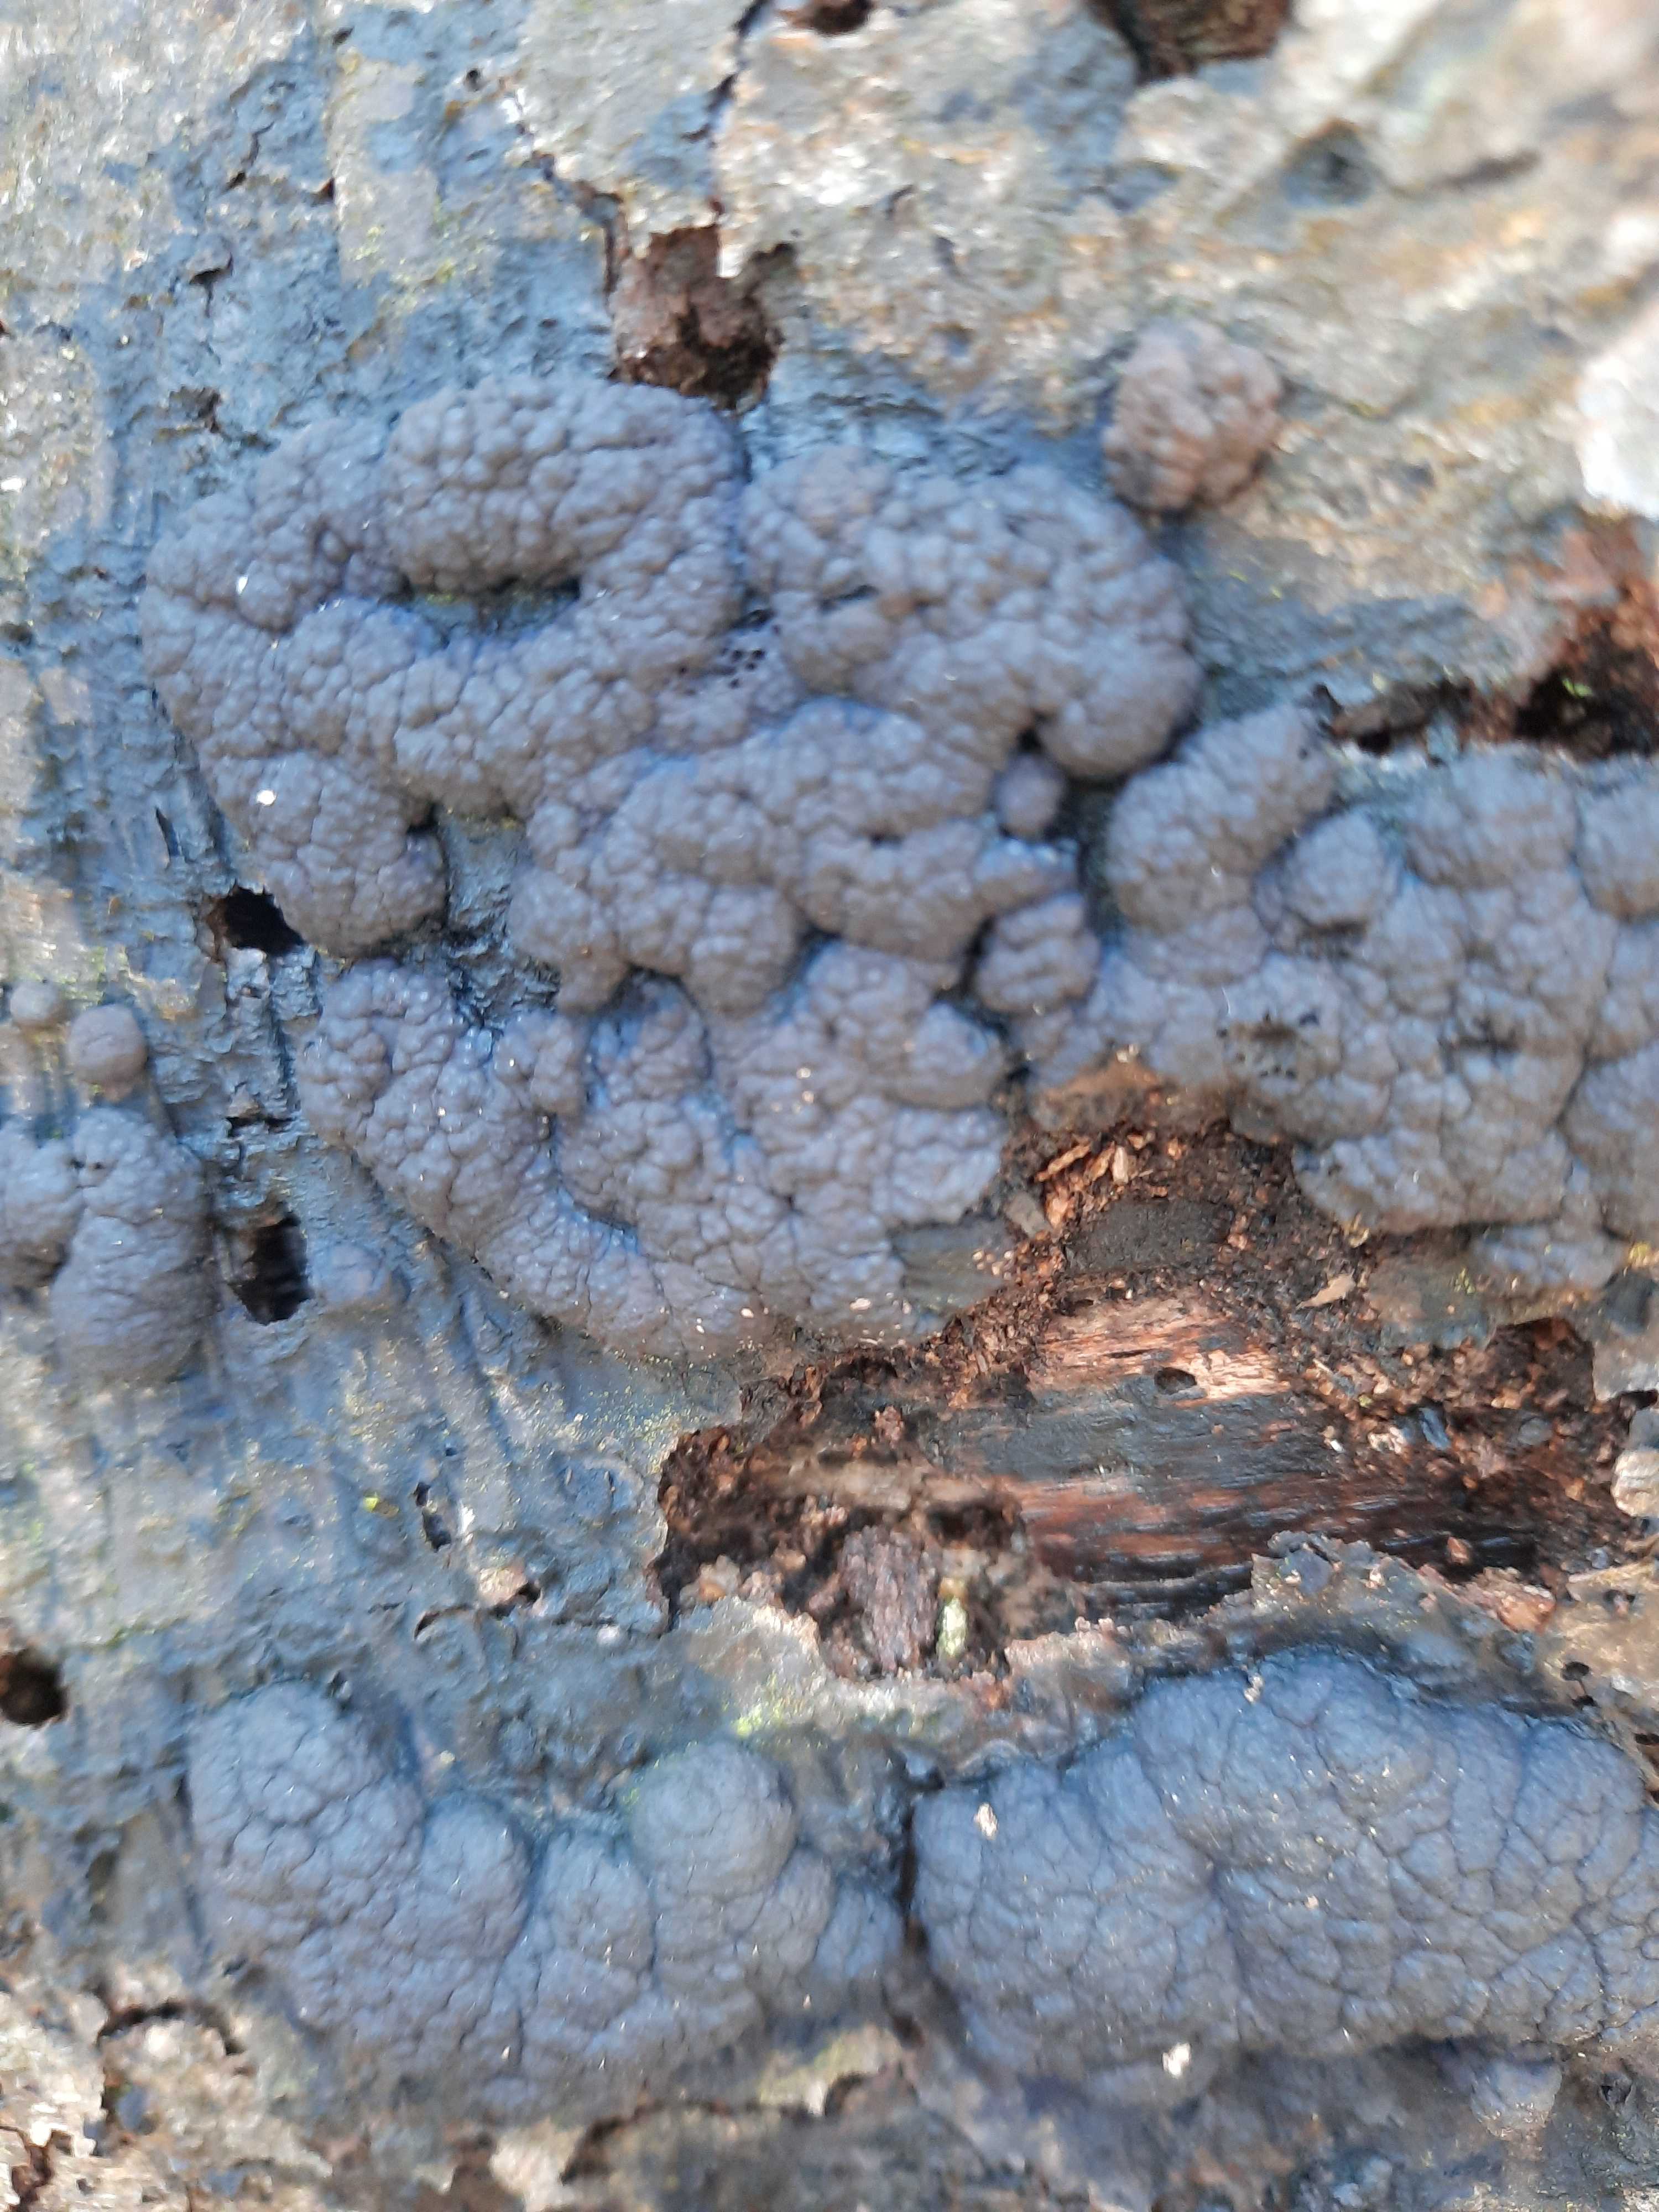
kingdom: Fungi
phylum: Ascomycota
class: Sordariomycetes
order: Xylariales
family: Xylariaceae
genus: Kretzschmaria
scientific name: Kretzschmaria deusta
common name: stor kulsvamp
